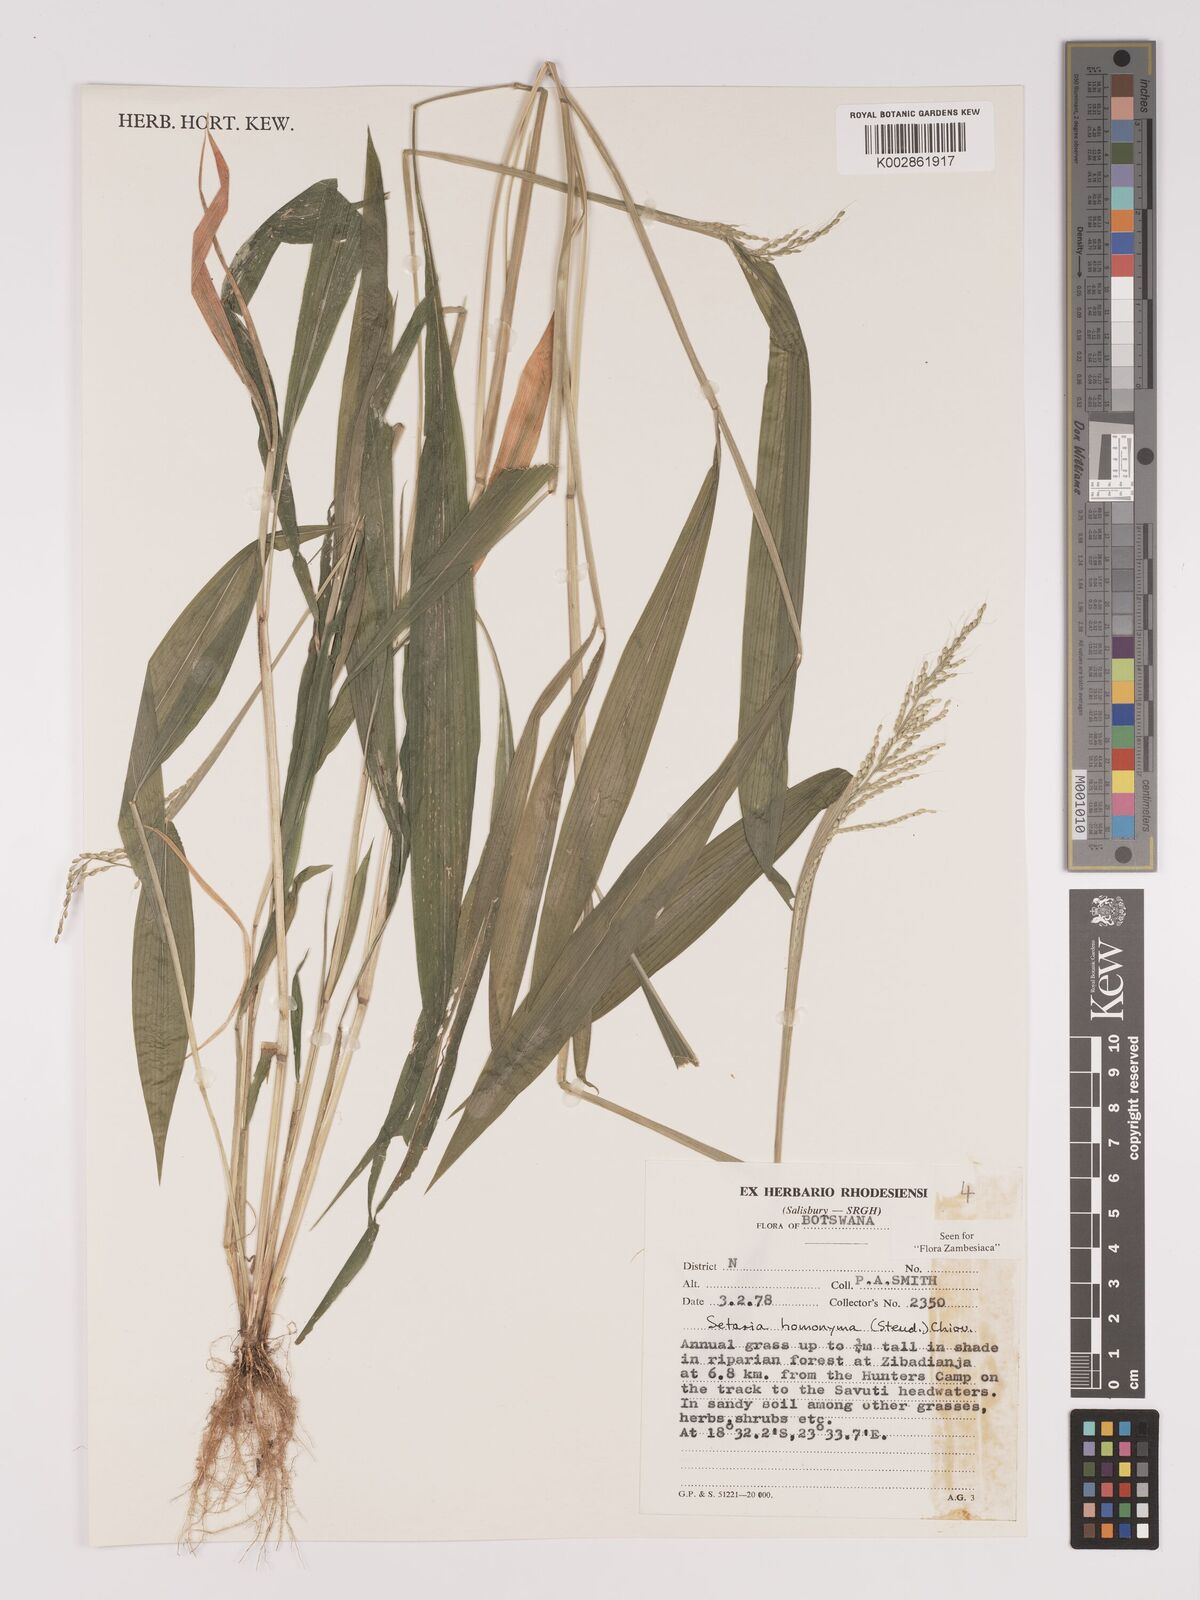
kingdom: Plantae
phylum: Tracheophyta
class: Liliopsida
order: Poales
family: Poaceae
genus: Setaria
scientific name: Setaria homonyma
